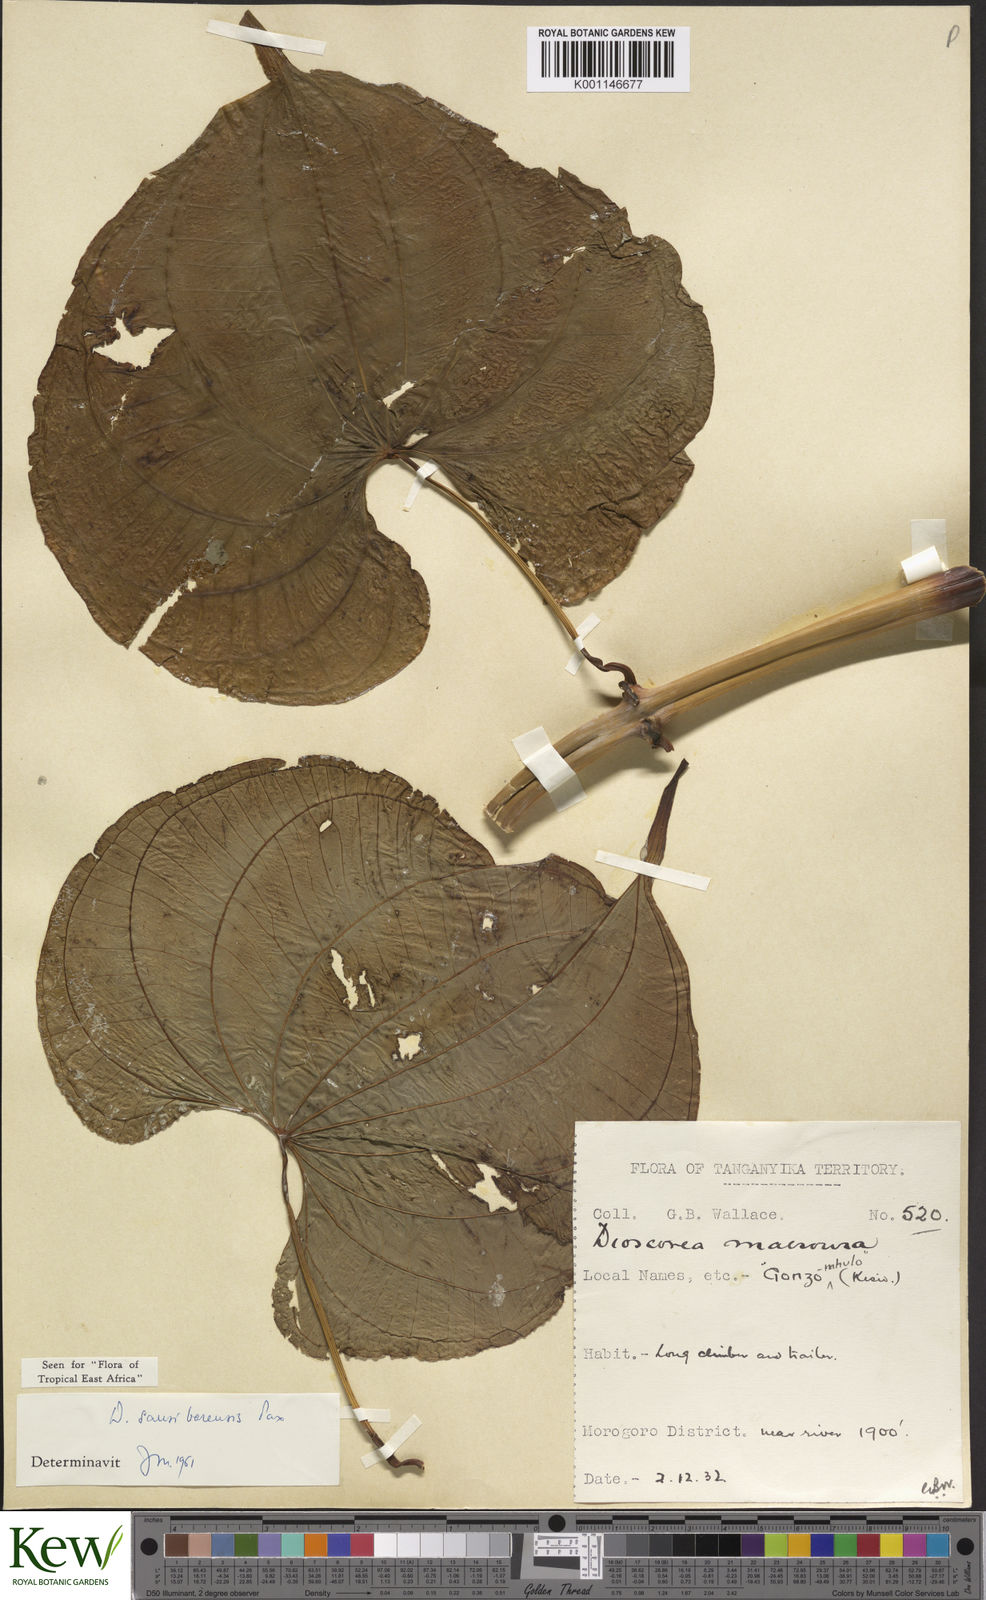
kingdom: Plantae
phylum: Tracheophyta
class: Liliopsida
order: Dioscoreales
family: Dioscoreaceae
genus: Dioscorea
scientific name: Dioscorea sansibarensis
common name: Zanzibar yam
